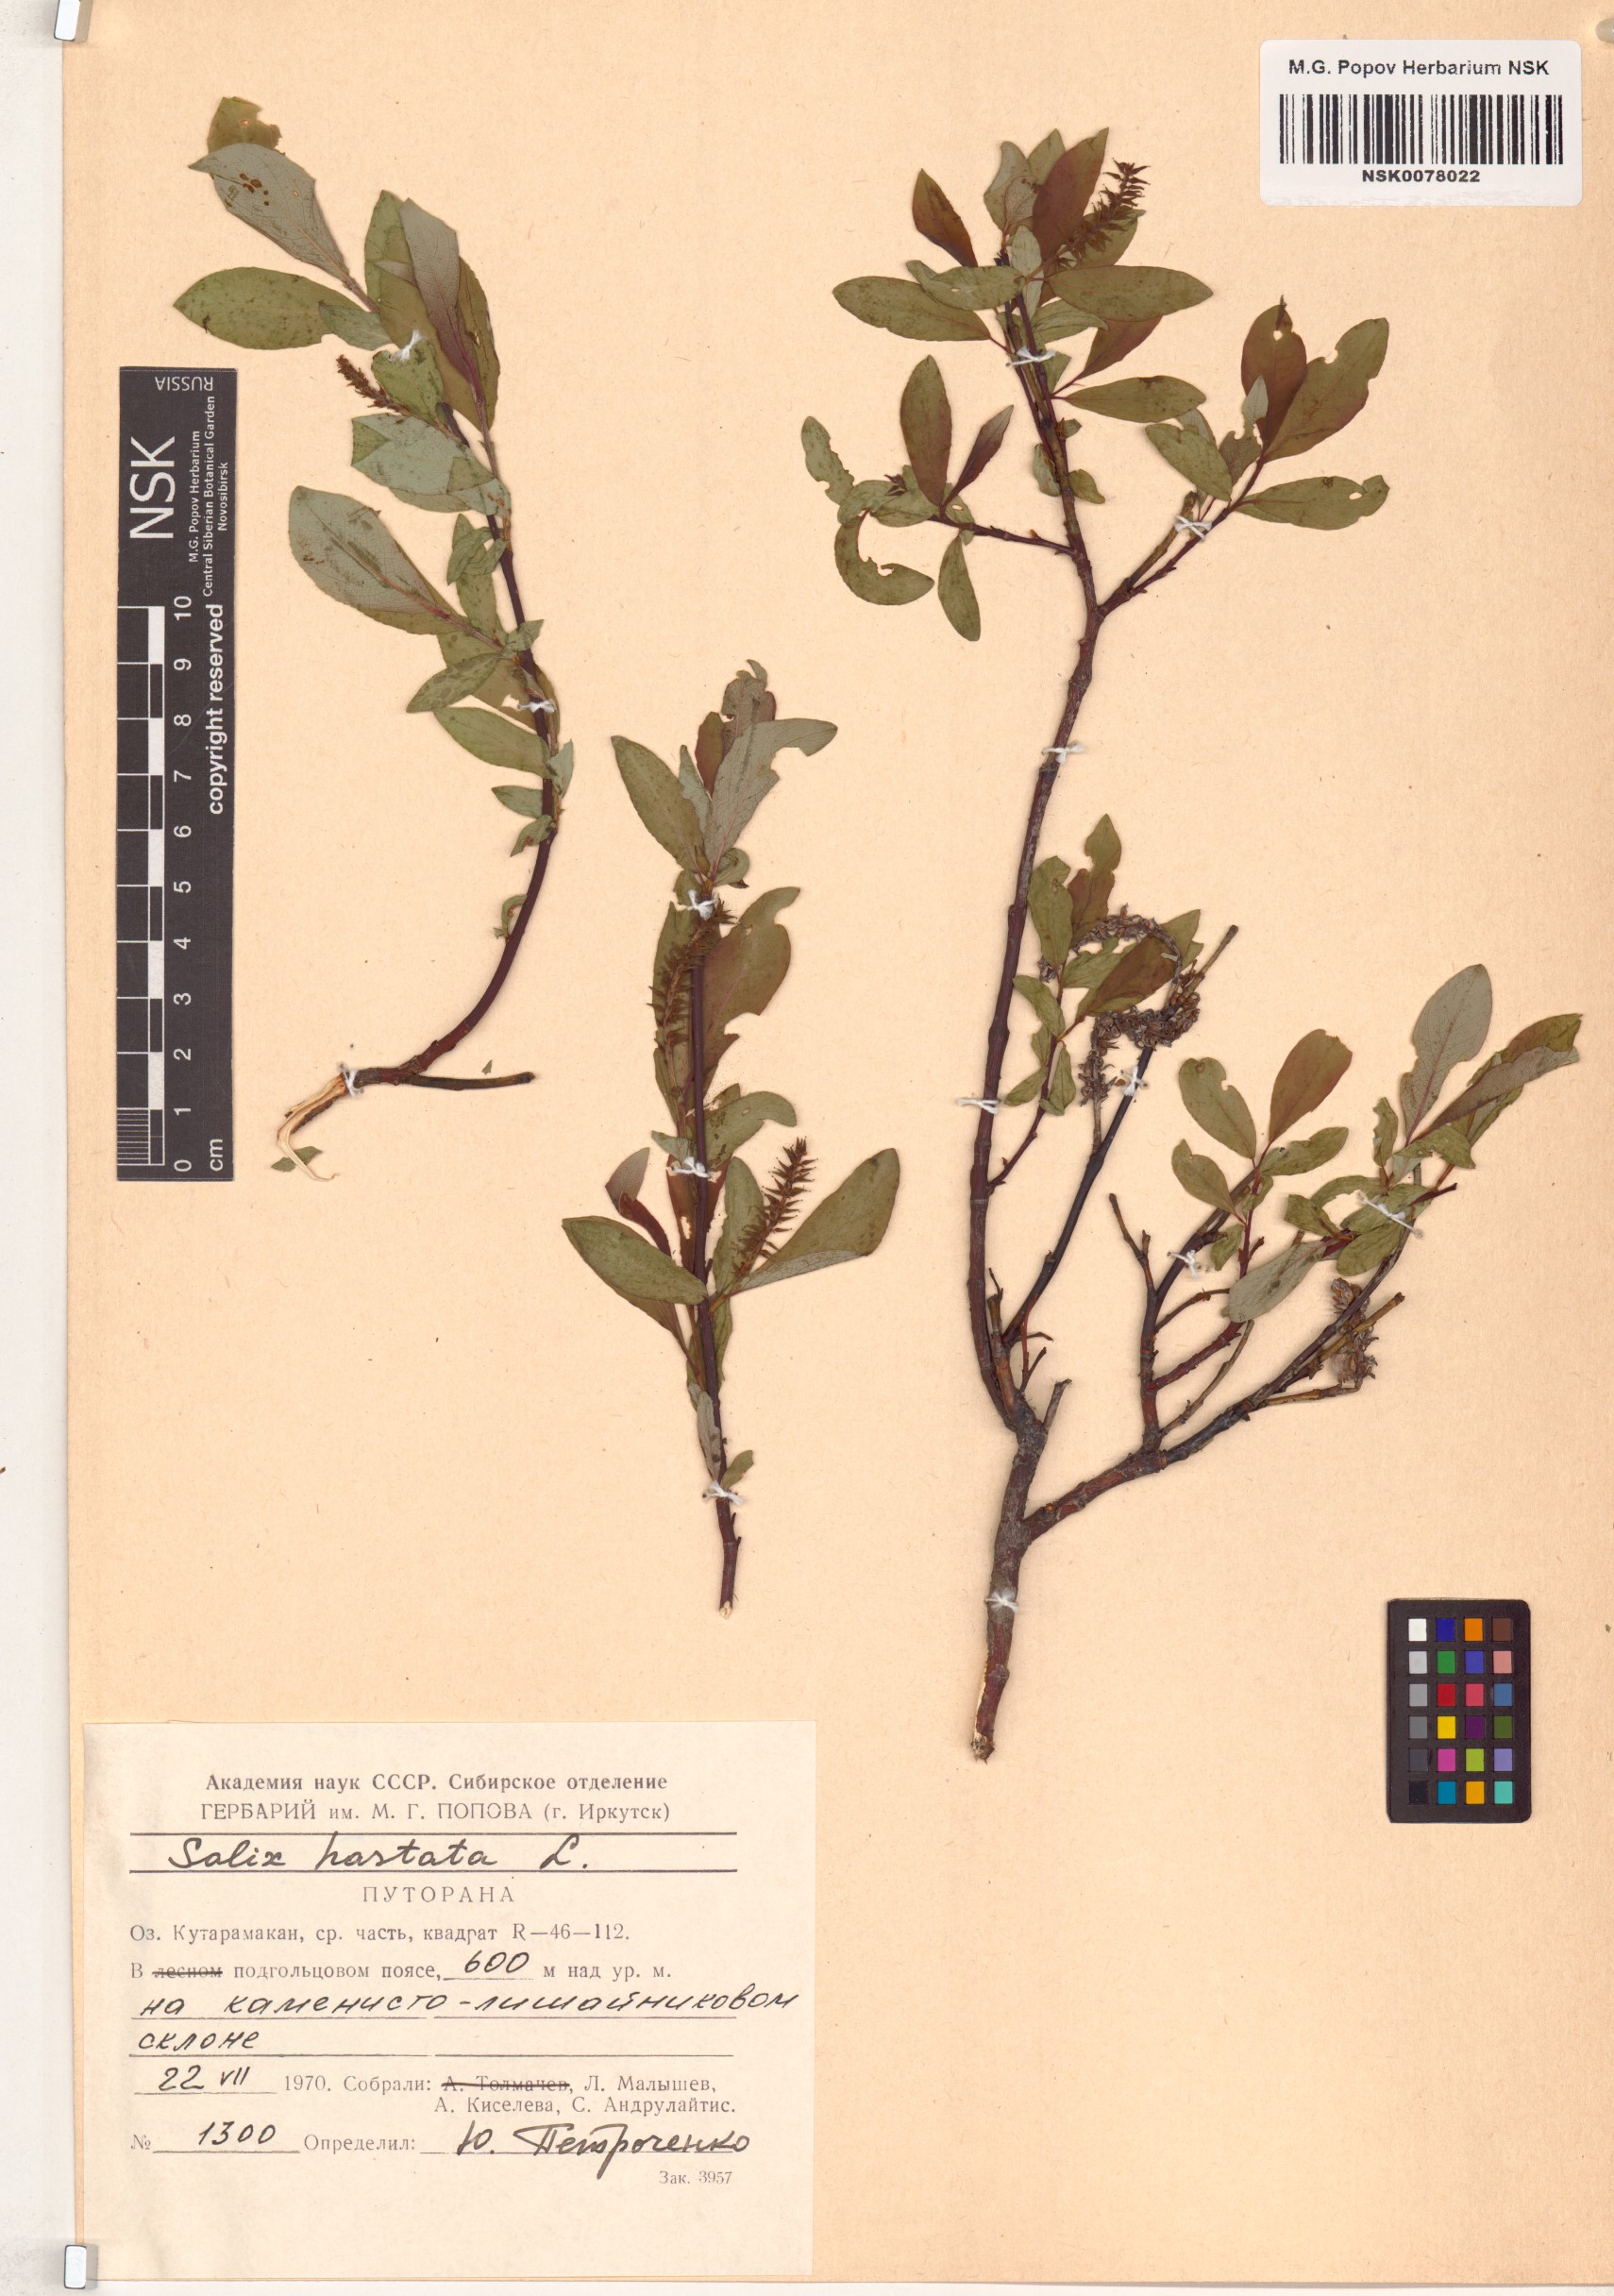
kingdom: Plantae
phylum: Tracheophyta
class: Magnoliopsida
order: Malpighiales
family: Salicaceae
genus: Salix
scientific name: Salix hastata
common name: Halberd willow
